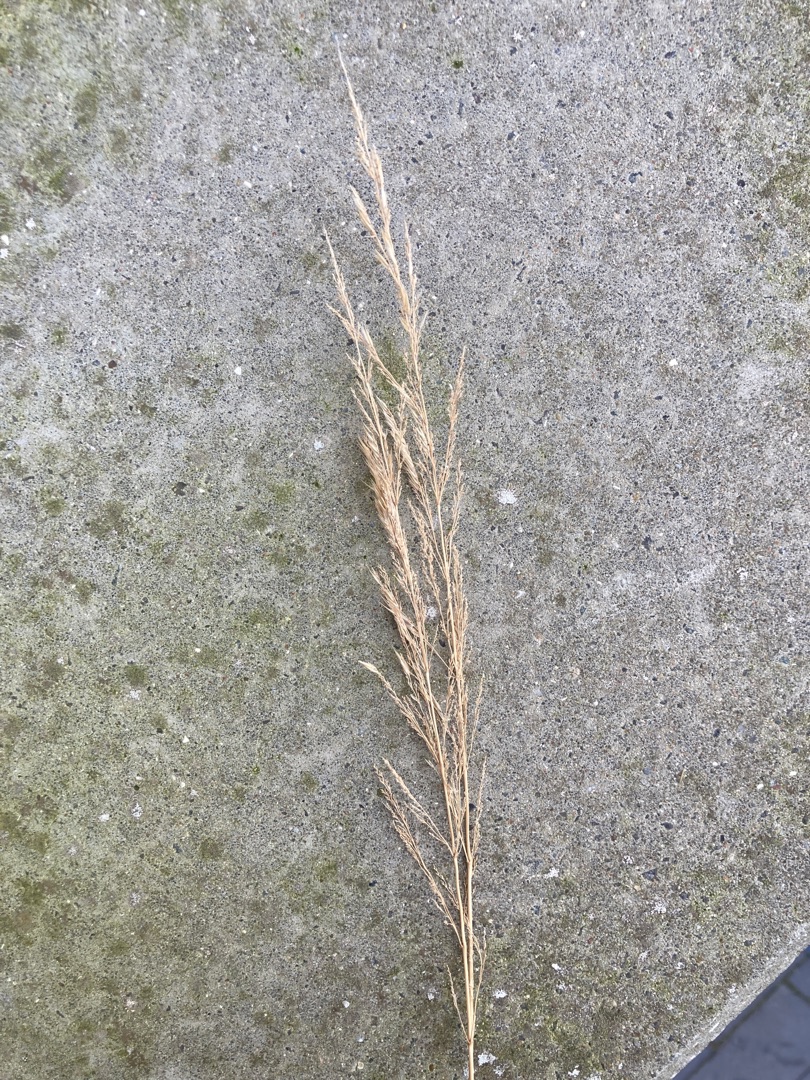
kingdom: Plantae
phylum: Tracheophyta
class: Liliopsida
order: Poales
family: Poaceae
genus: Calamagrostis
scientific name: Calamagrostis epigejos
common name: Bjerg-rørhvene
